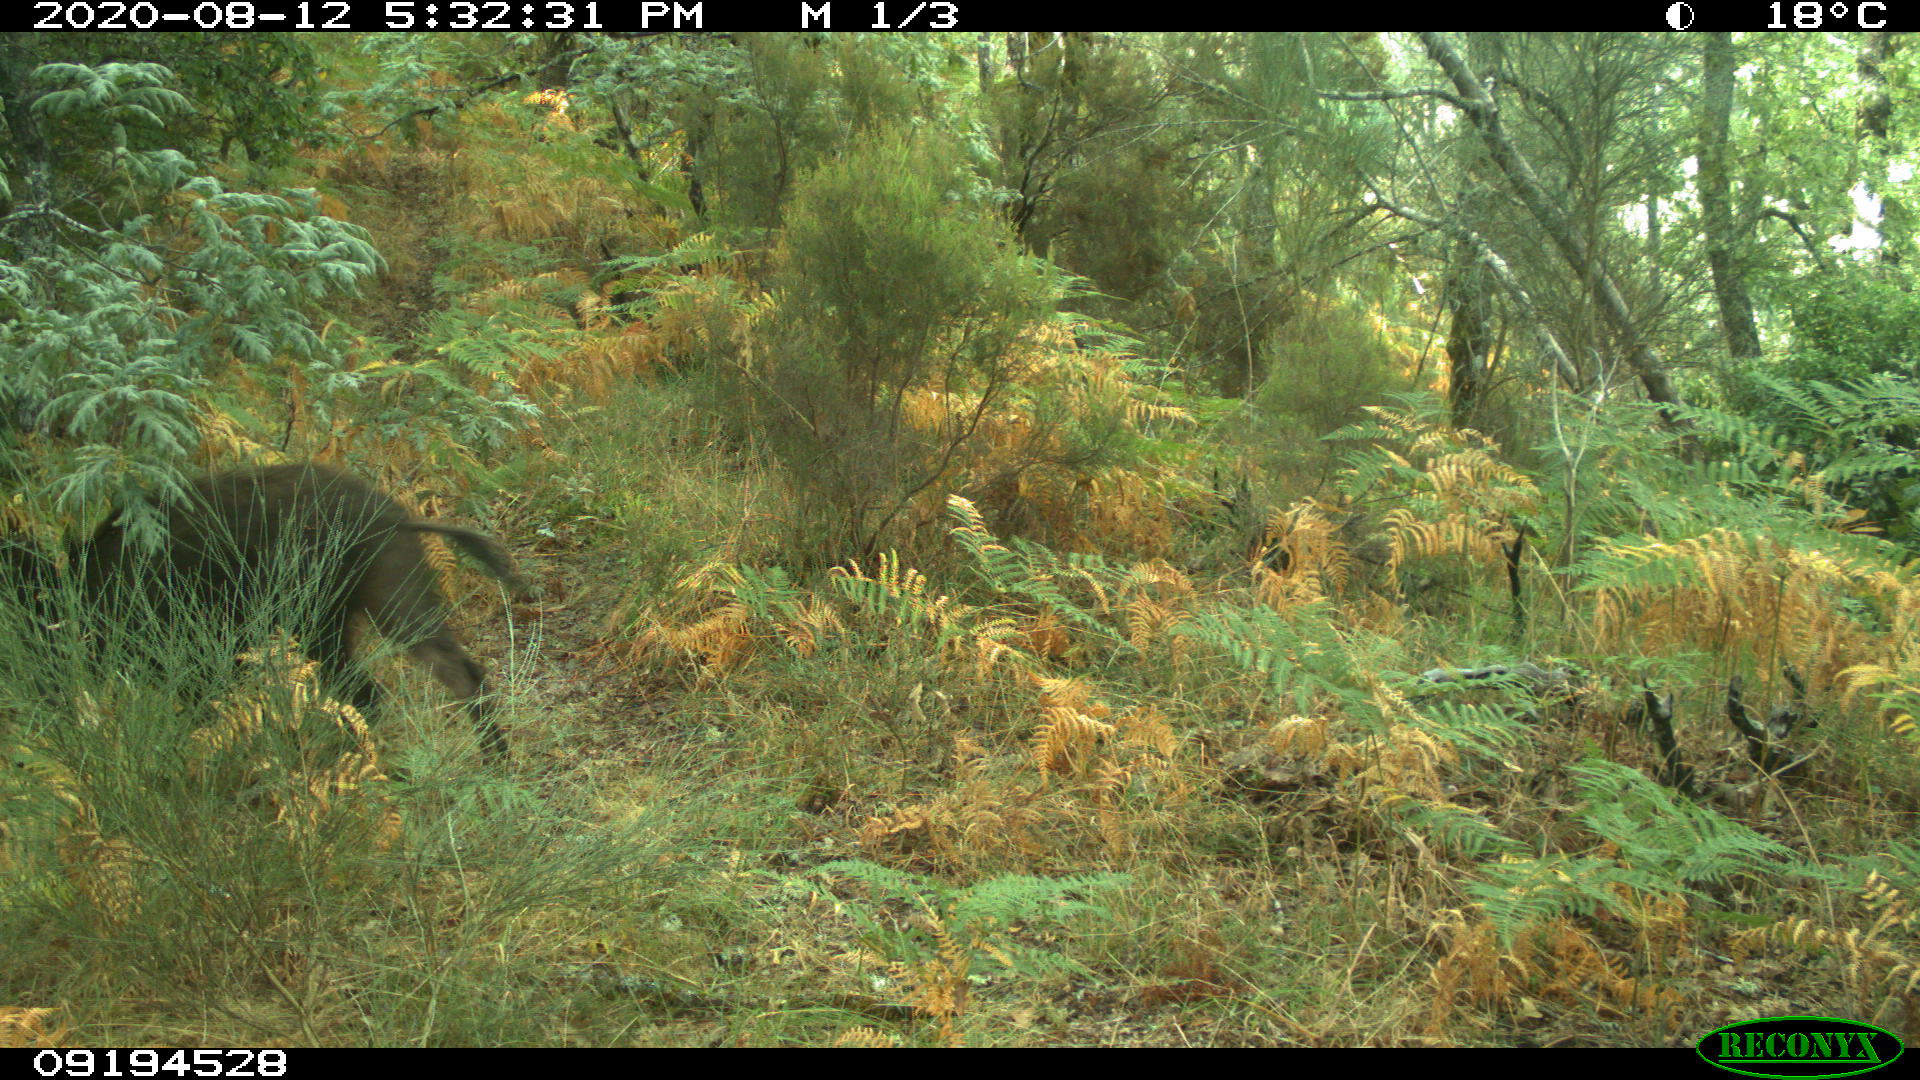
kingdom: Animalia
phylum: Chordata
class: Mammalia
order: Artiodactyla
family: Suidae
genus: Sus
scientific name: Sus scrofa
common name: Wild boar
